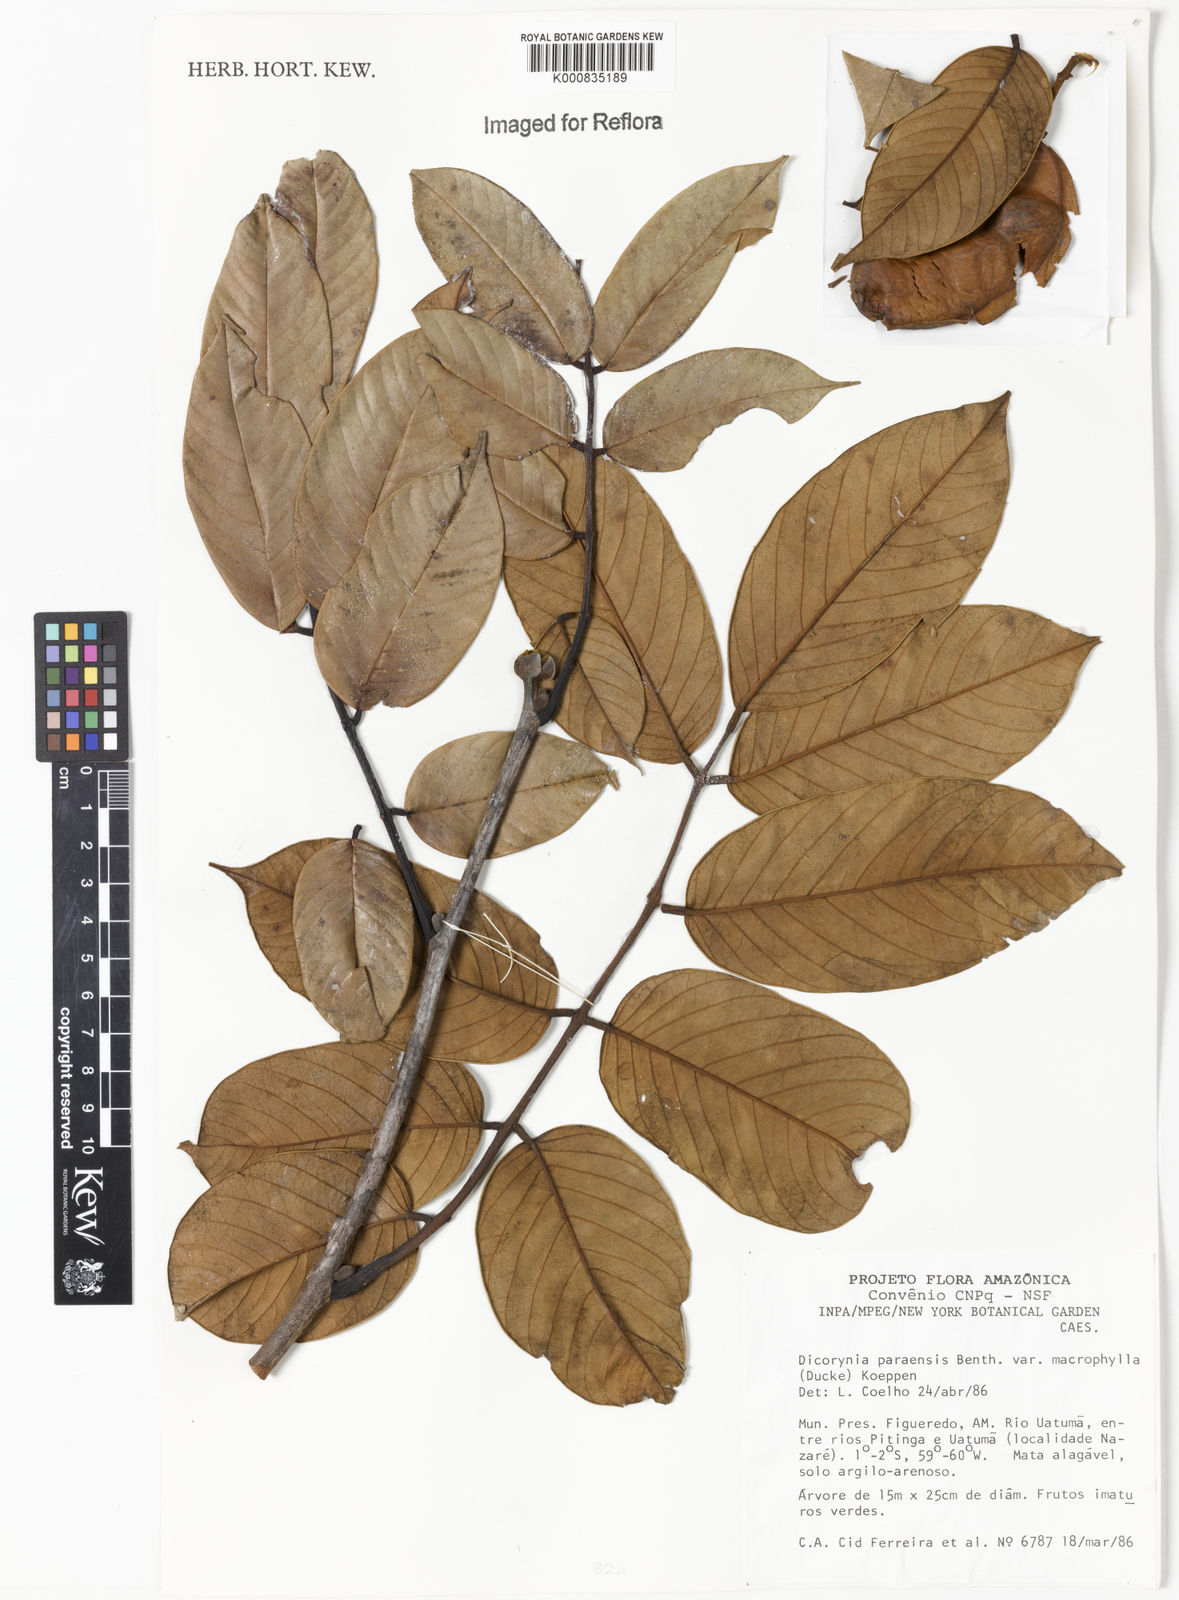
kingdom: Plantae
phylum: Tracheophyta
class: Magnoliopsida
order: Fabales
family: Fabaceae
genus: Dicorynia
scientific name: Dicorynia paraensis
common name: Angelique
